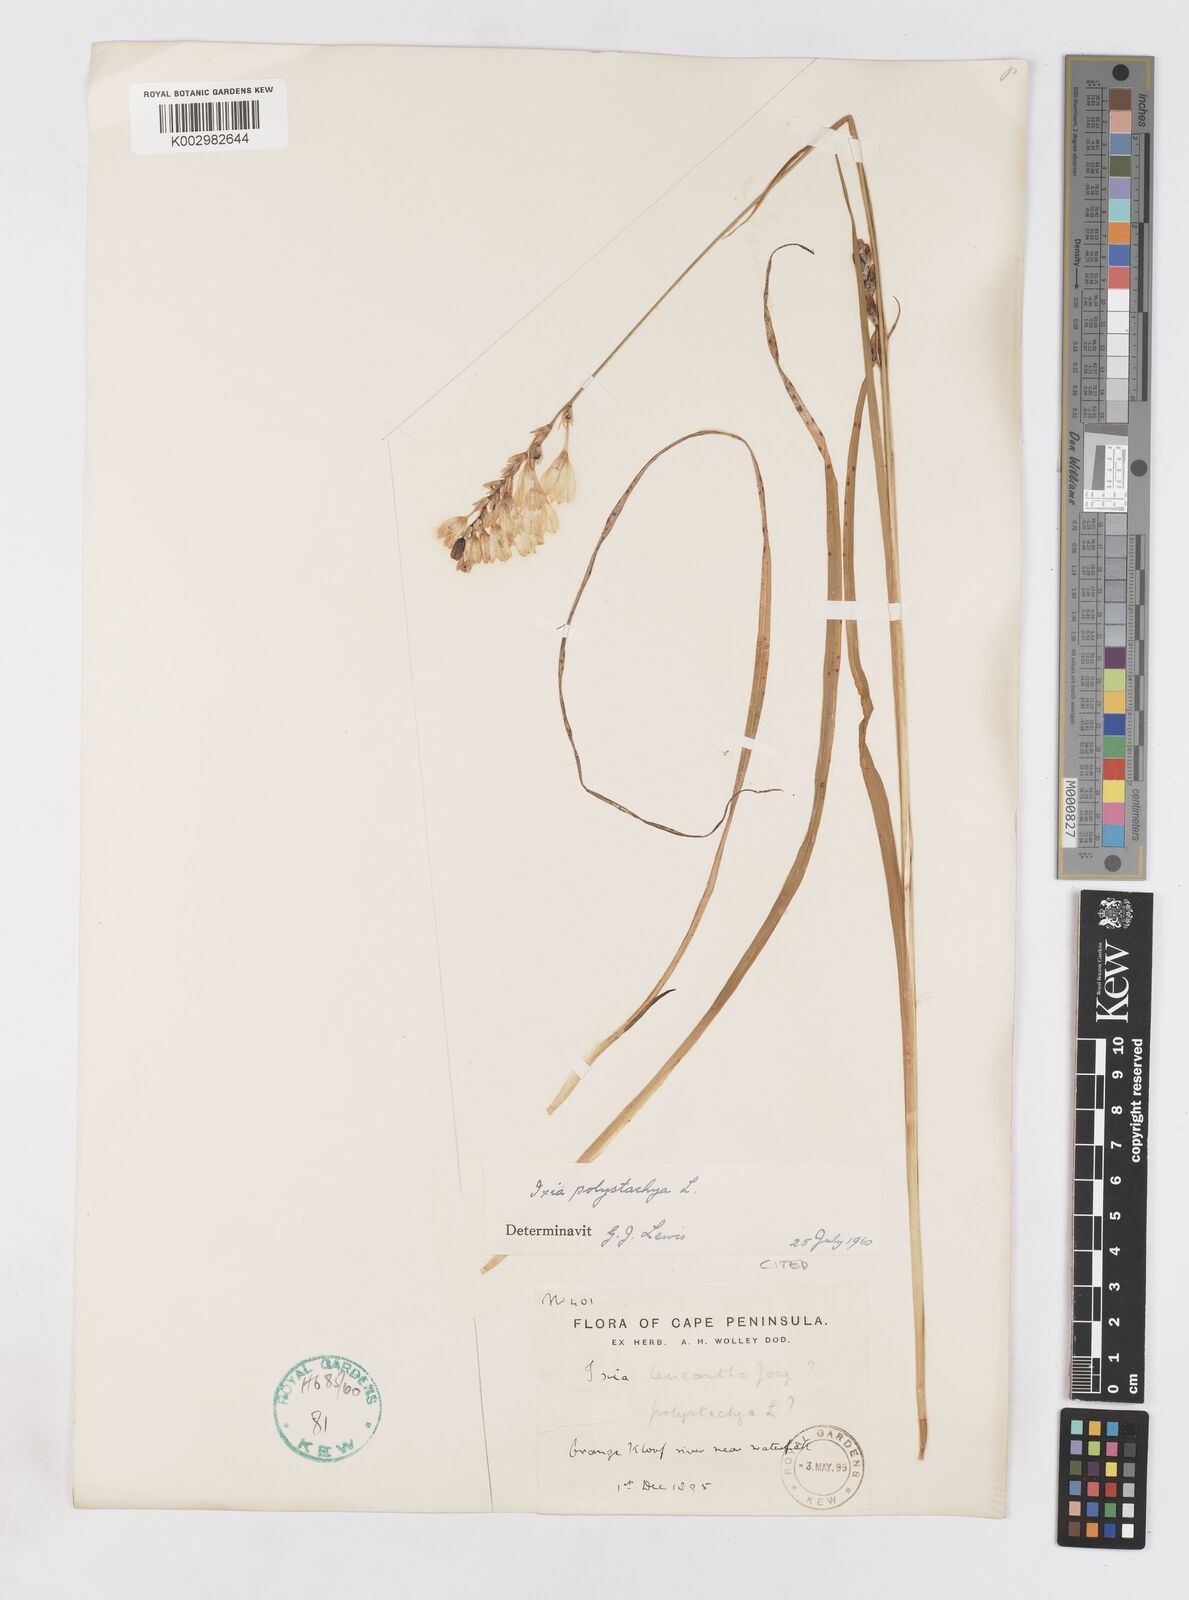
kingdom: Plantae
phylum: Tracheophyta
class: Liliopsida
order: Asparagales
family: Iridaceae
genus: Ixia
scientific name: Ixia polystachya
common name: White-and-yellow-flower cornlily
